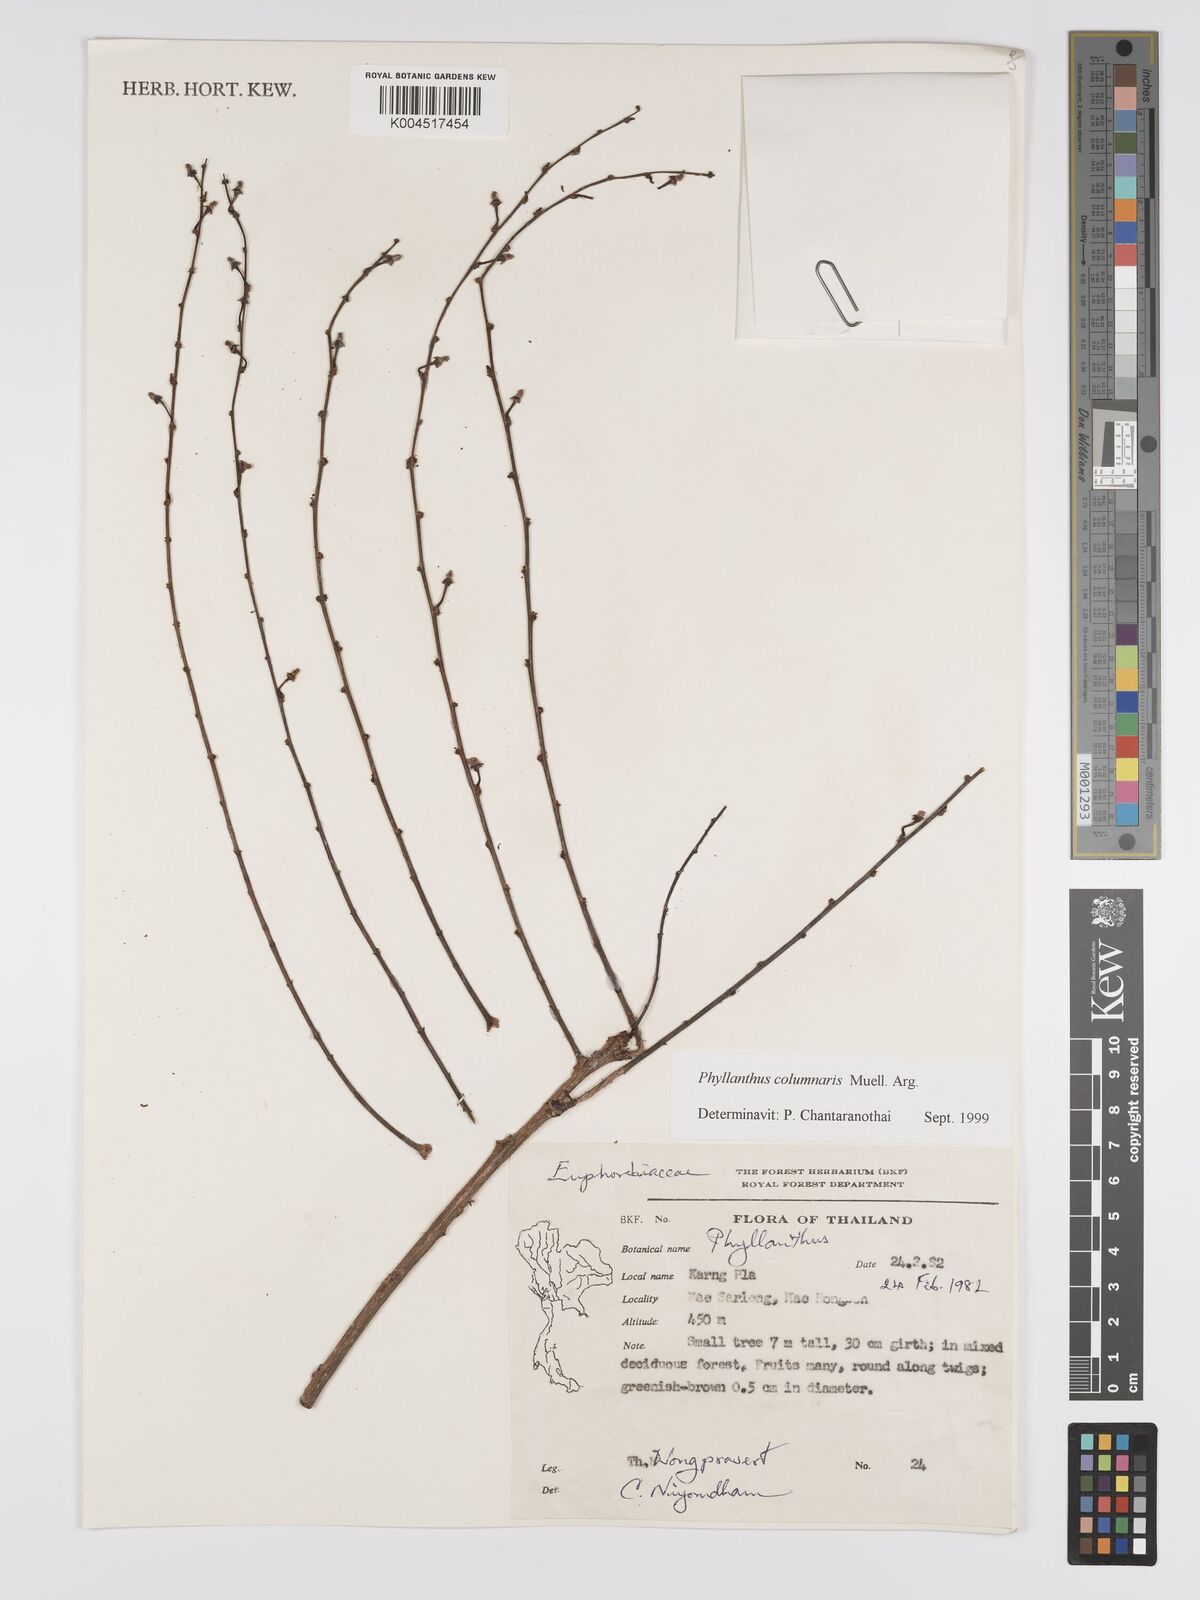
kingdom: Plantae
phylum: Tracheophyta
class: Magnoliopsida
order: Malpighiales
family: Phyllanthaceae
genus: Phyllanthus
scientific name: Phyllanthus
